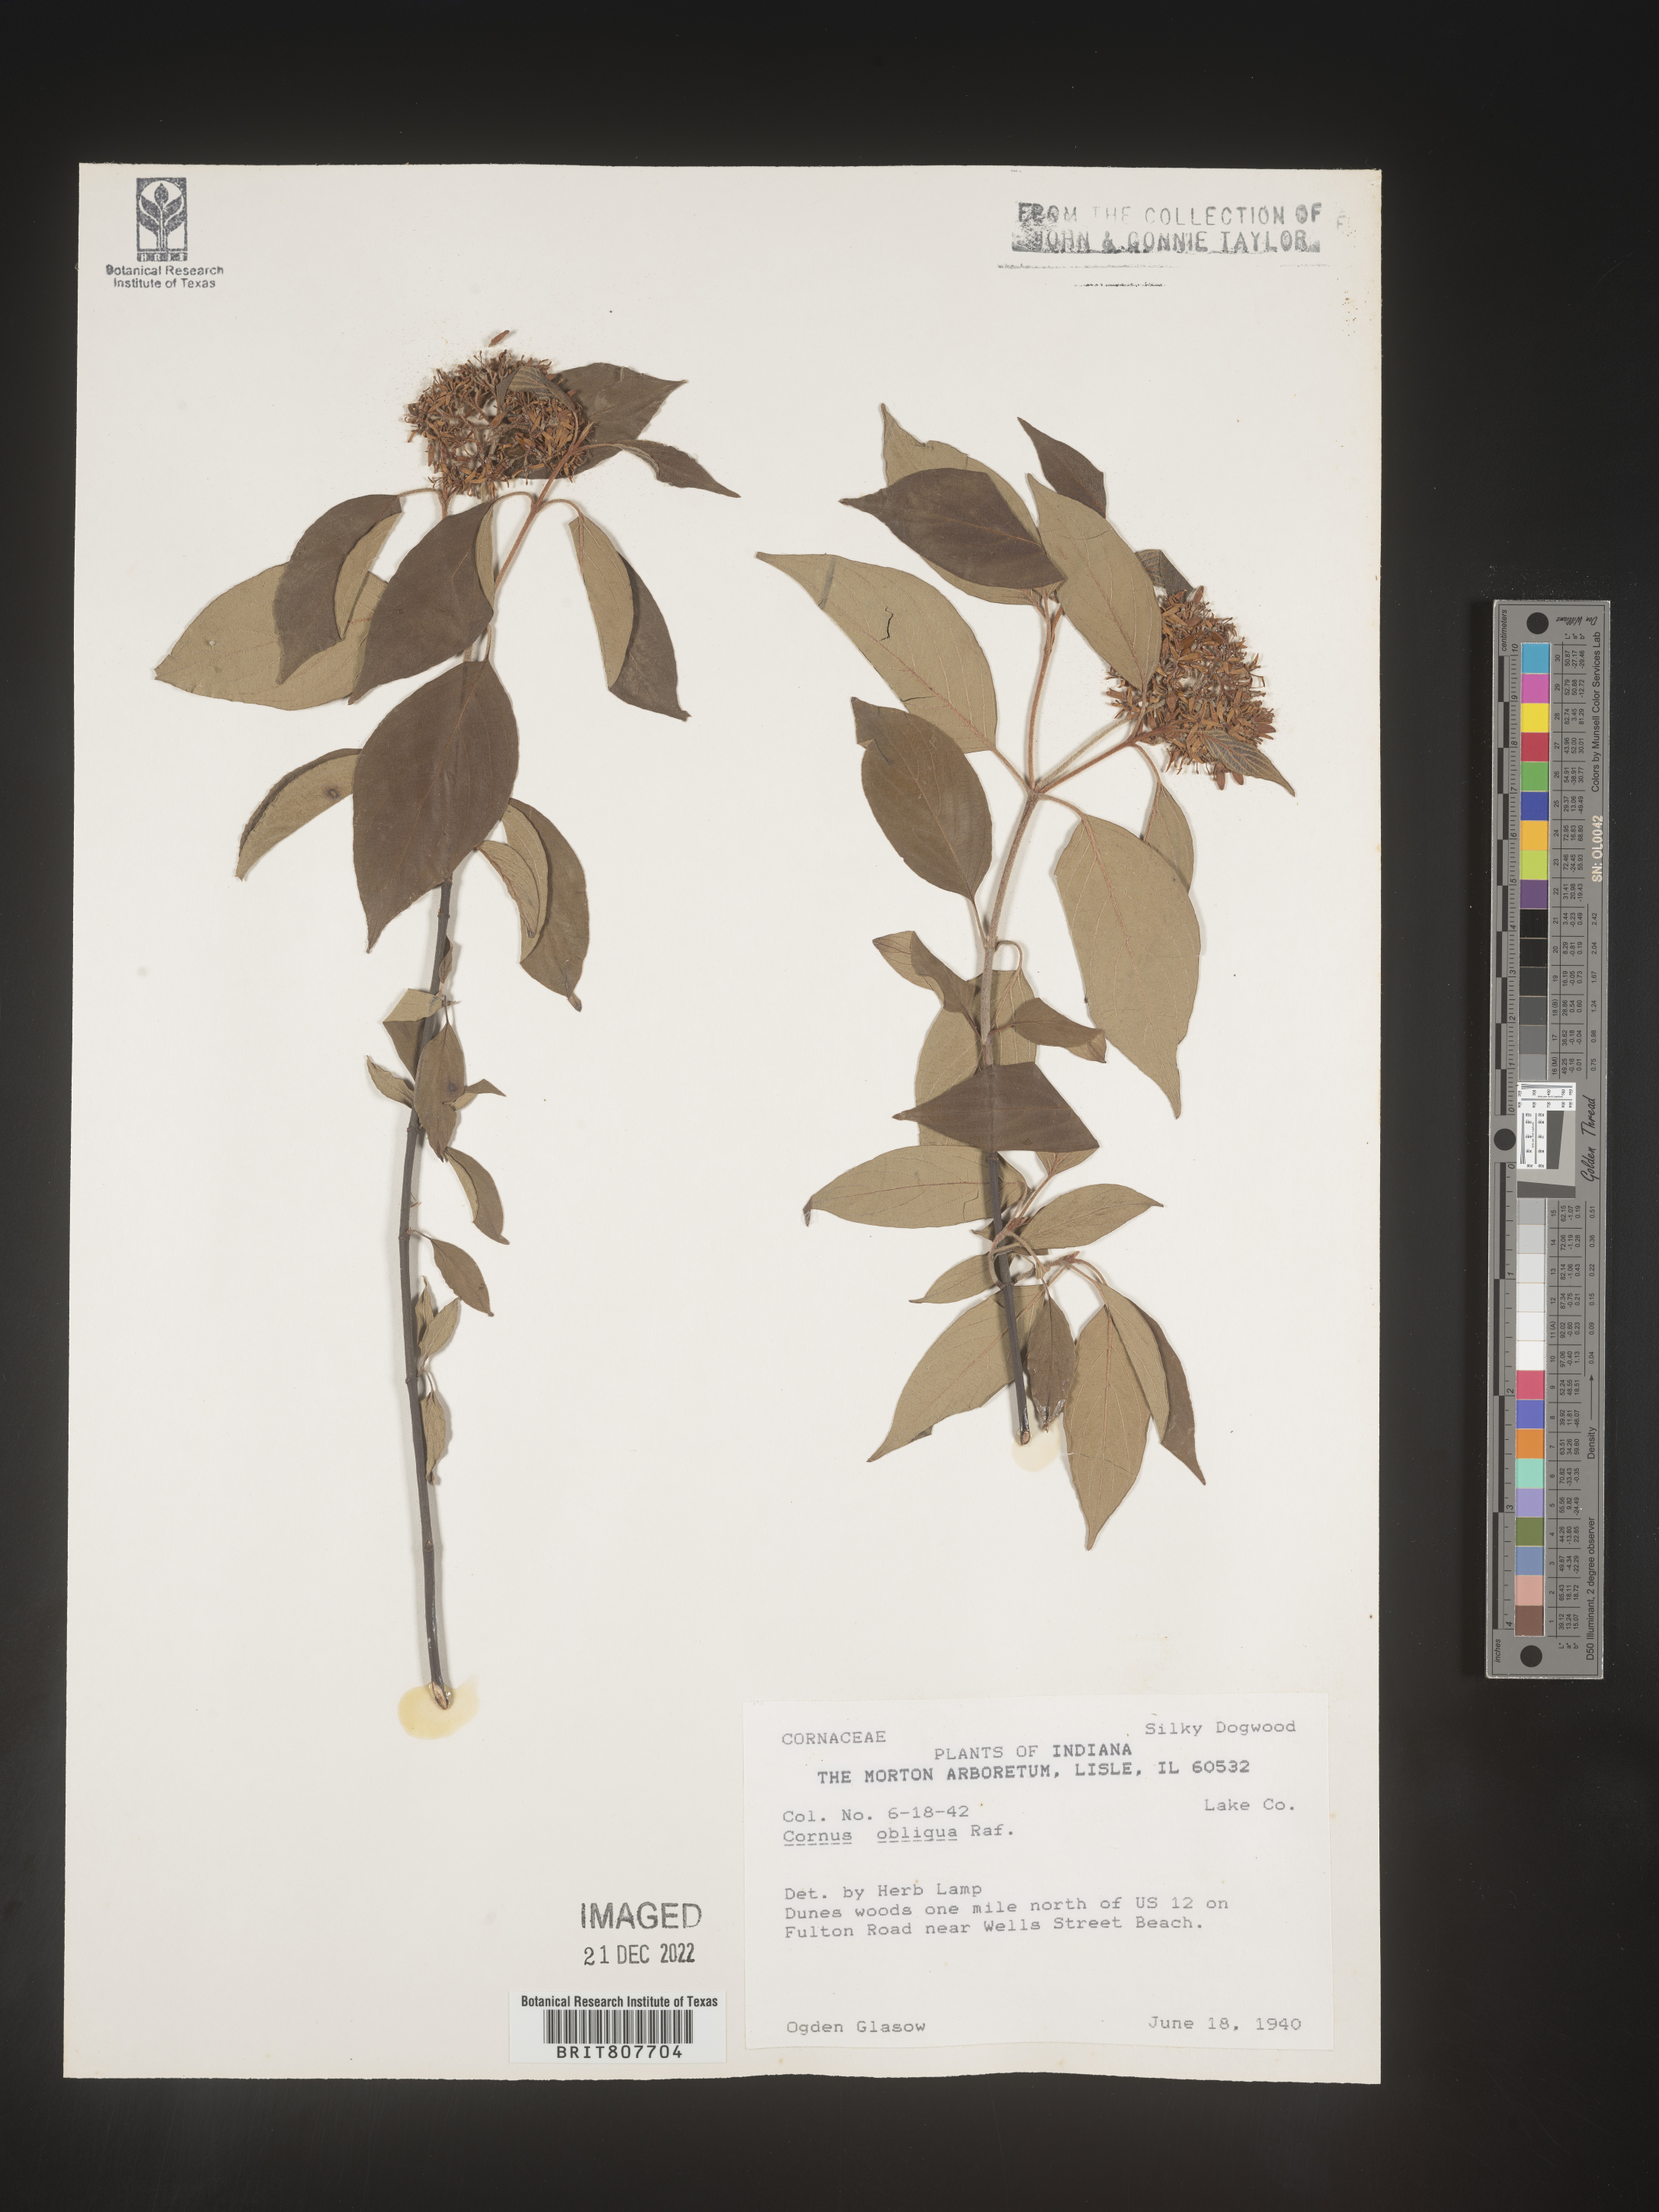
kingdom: Plantae
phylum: Tracheophyta
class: Magnoliopsida
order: Cornales
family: Cornaceae
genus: Cornus
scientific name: Cornus obliqua
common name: Pale dogwood
